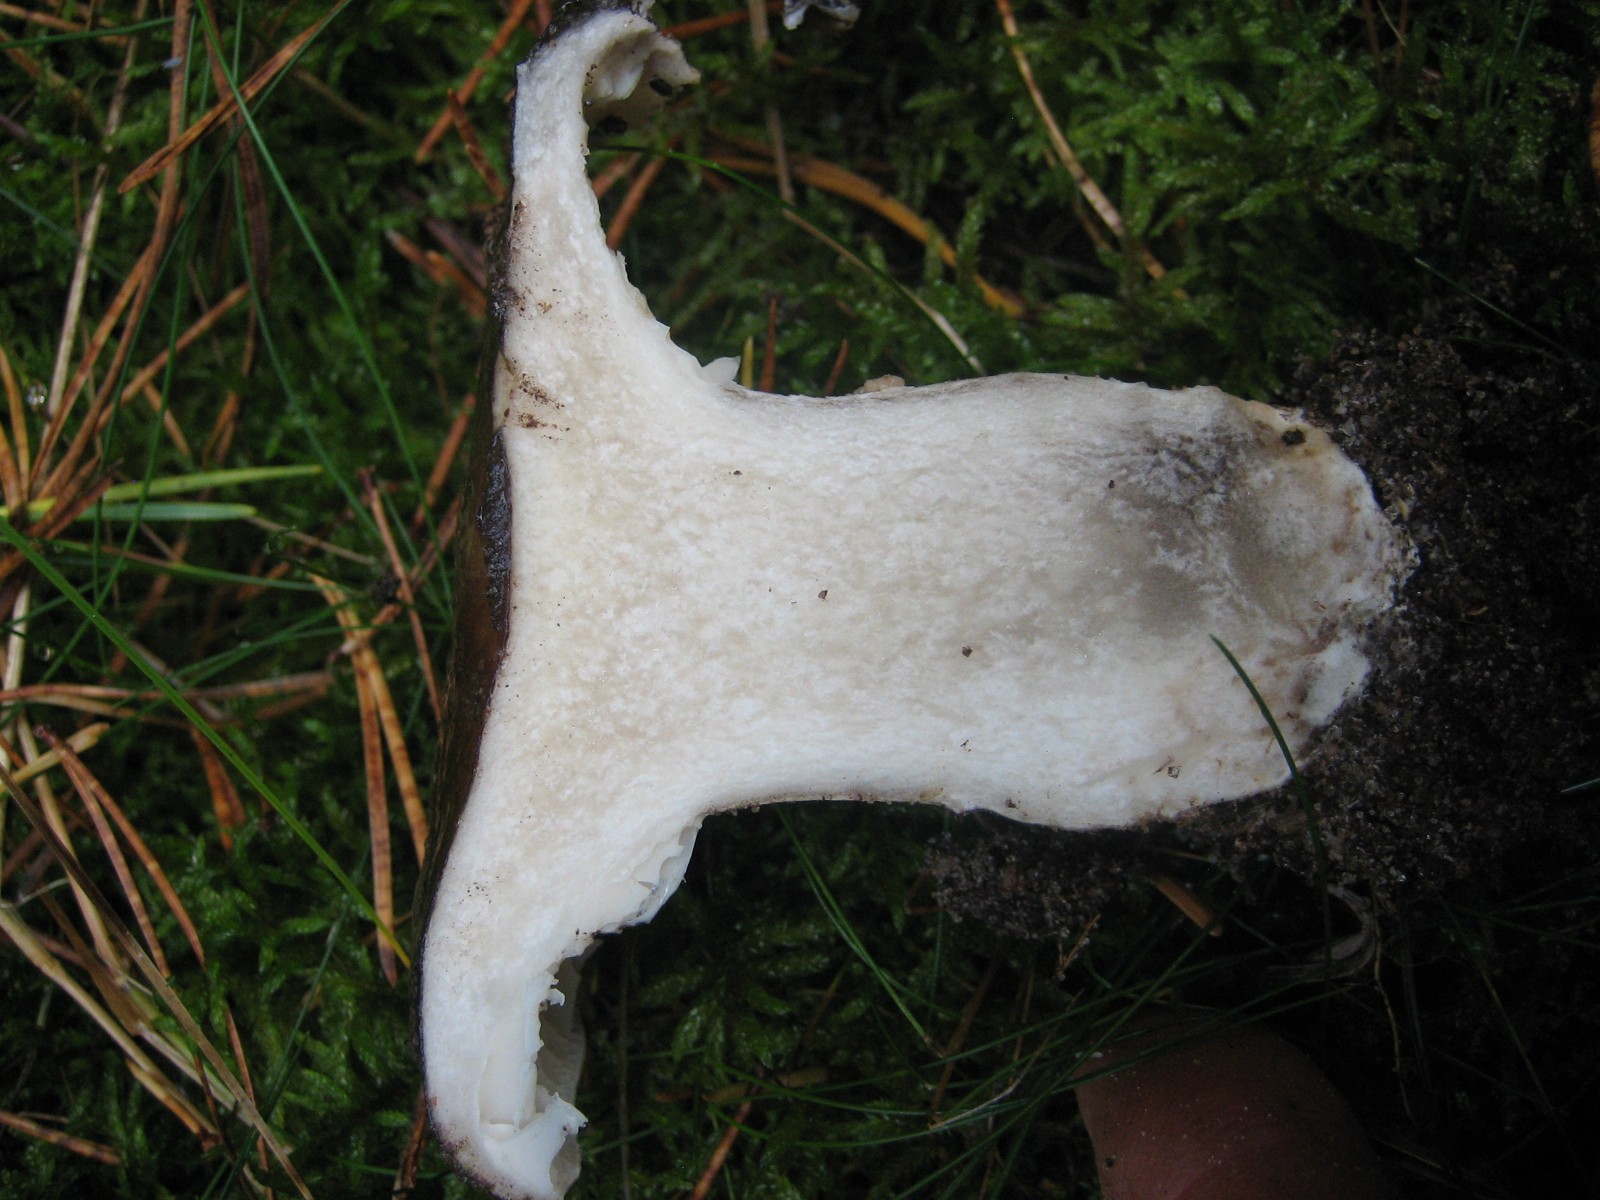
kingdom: Fungi
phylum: Basidiomycota
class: Agaricomycetes
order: Russulales
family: Russulaceae
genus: Russula
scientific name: Russula adusta
